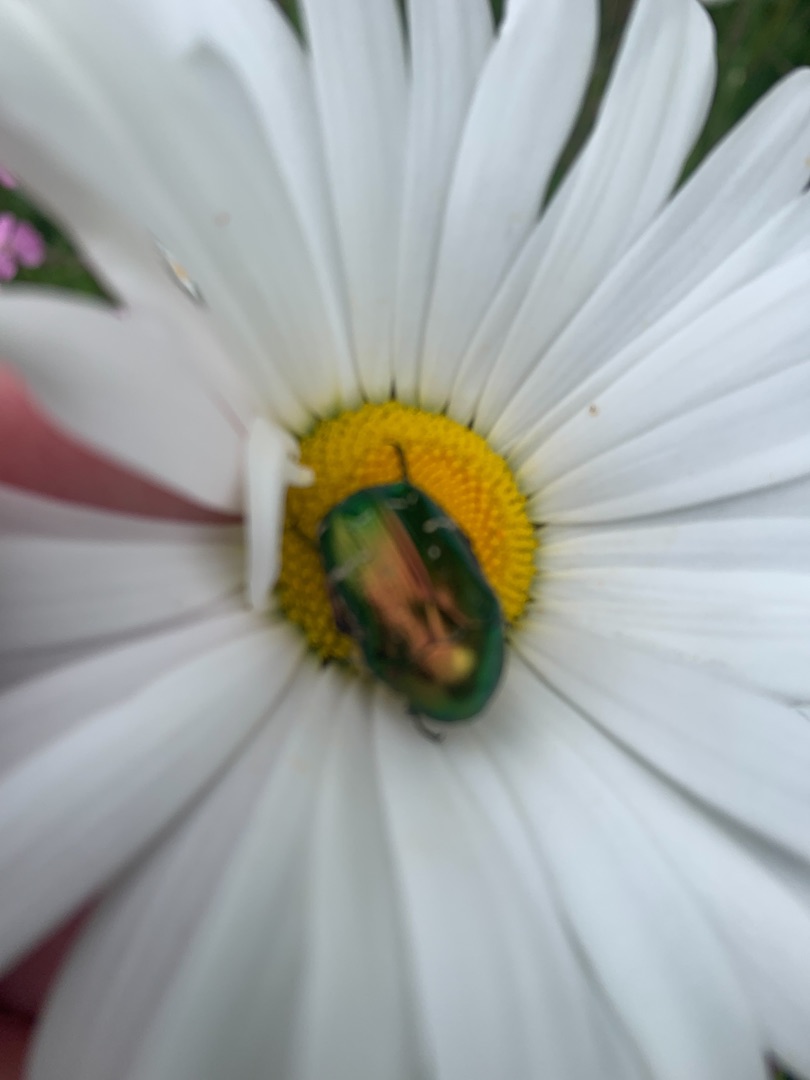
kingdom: Animalia
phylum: Arthropoda
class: Insecta
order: Coleoptera
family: Scarabaeidae
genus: Cetonia
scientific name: Cetonia aurata
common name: Grøn guldbasse
